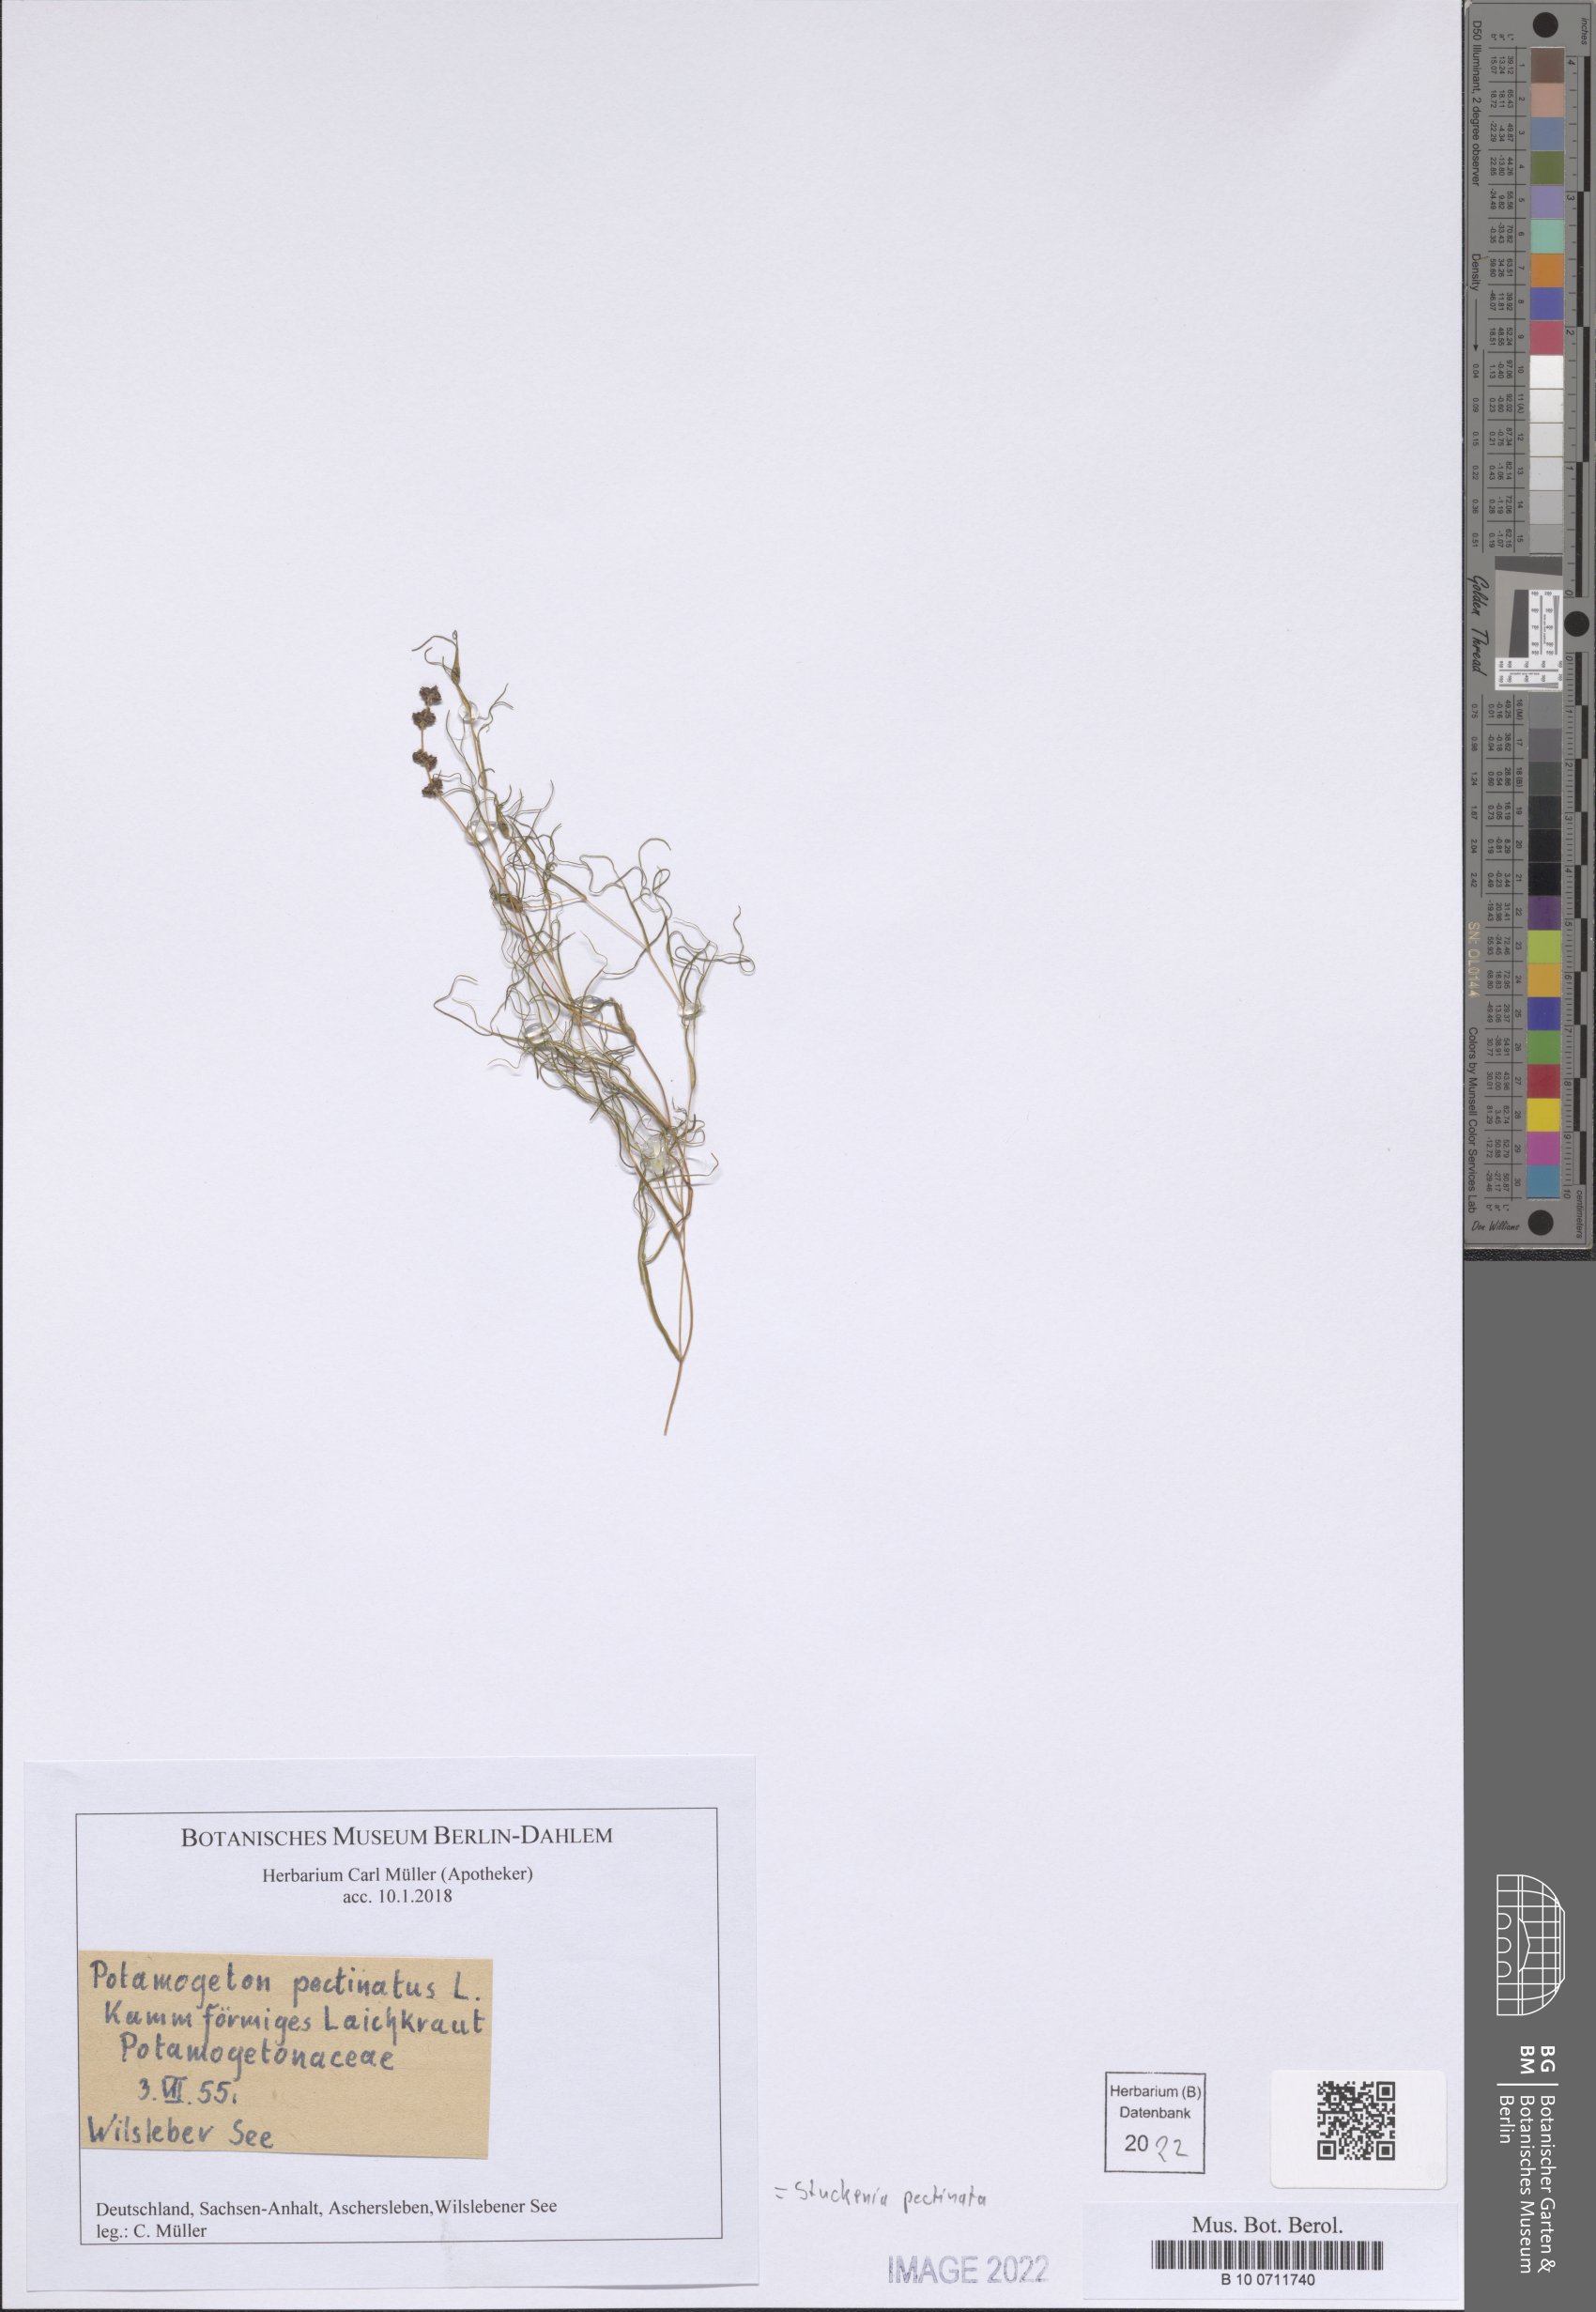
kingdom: Plantae
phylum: Tracheophyta
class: Liliopsida
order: Alismatales
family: Potamogetonaceae
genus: Stuckenia
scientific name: Stuckenia pectinata
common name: Sago pondweed
